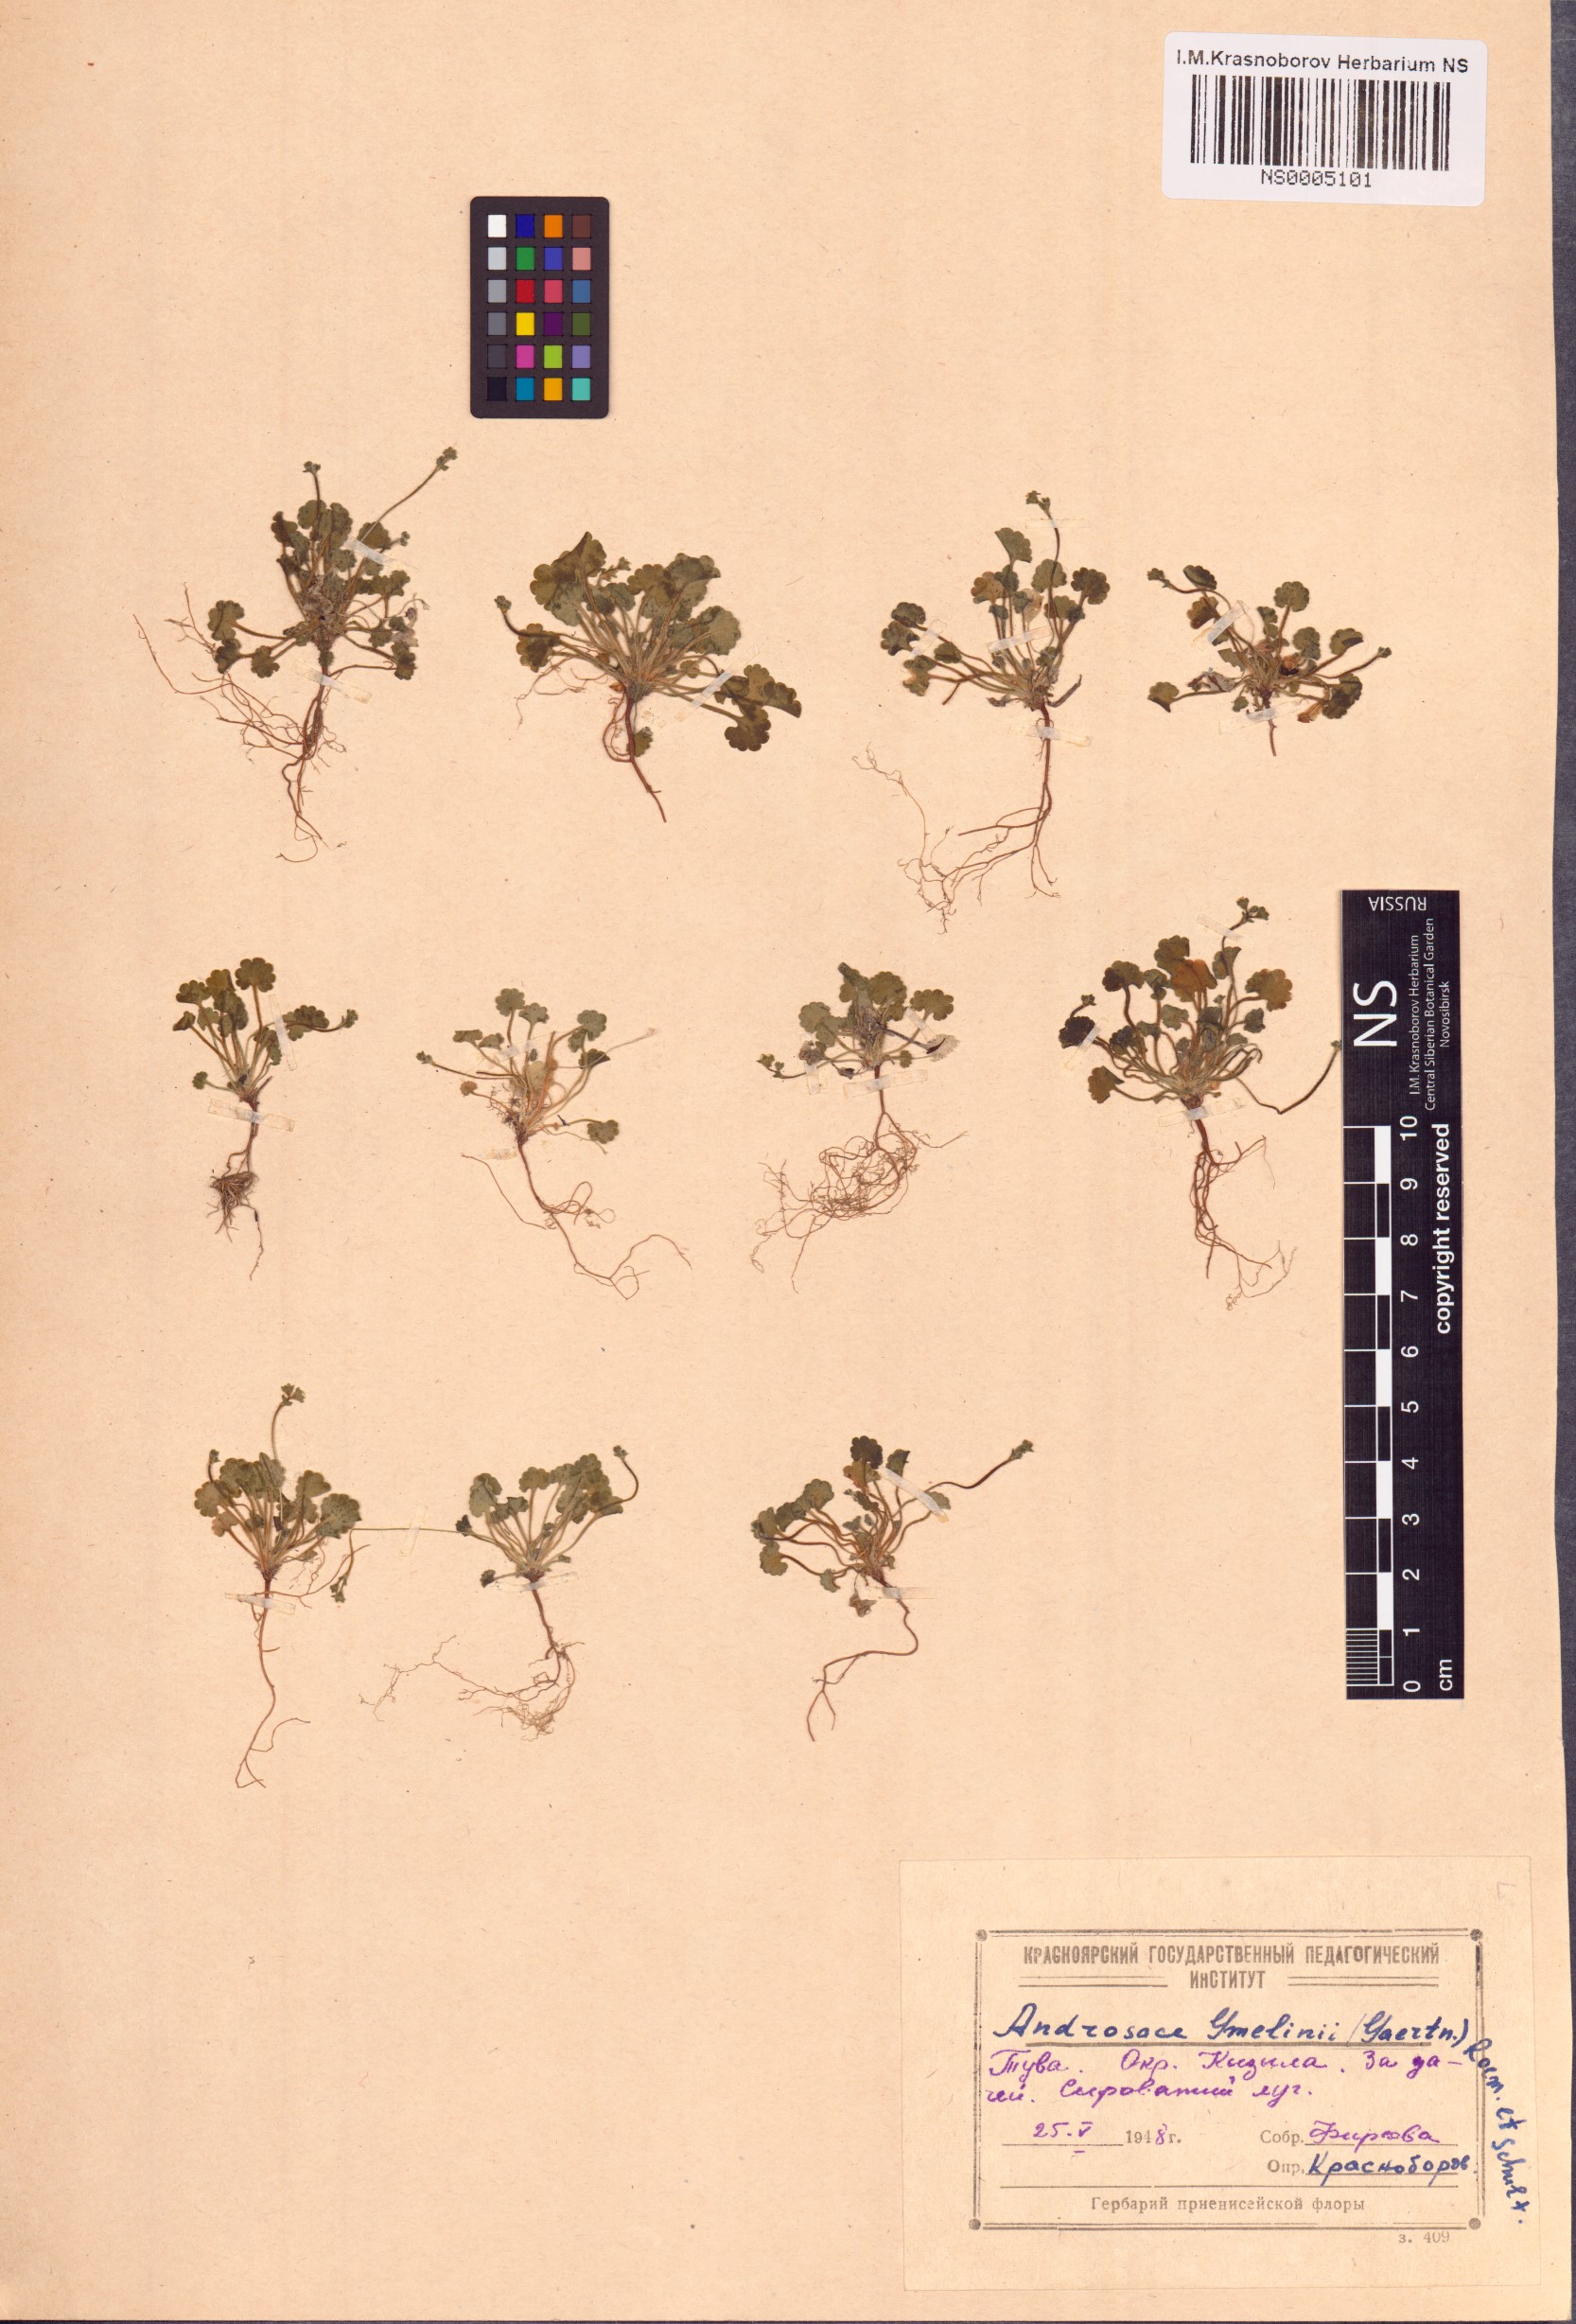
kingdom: Plantae
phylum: Tracheophyta
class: Magnoliopsida
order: Ericales
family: Primulaceae
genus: Androsace
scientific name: Androsace gmelinii
